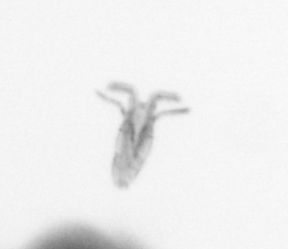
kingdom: Animalia
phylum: Arthropoda
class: Copepoda
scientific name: Copepoda
